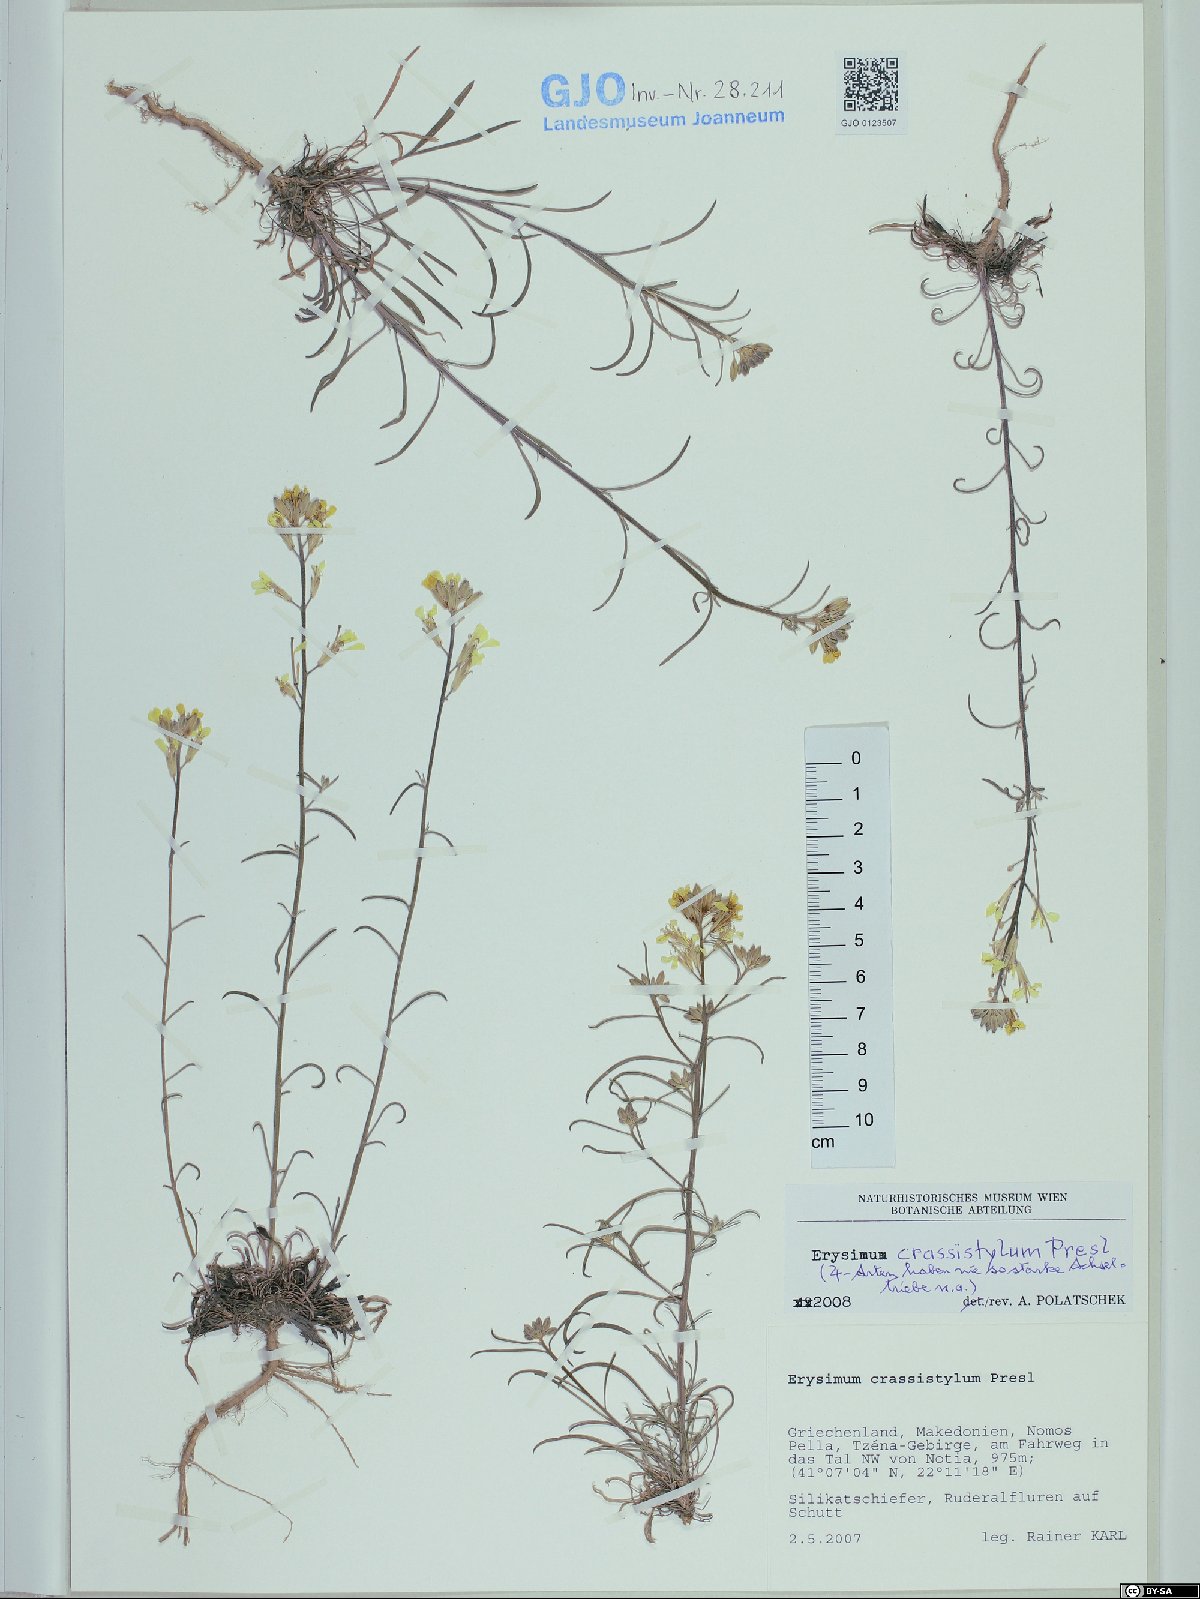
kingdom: Plantae
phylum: Tracheophyta
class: Magnoliopsida
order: Brassicales
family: Brassicaceae
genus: Erysimum
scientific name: Erysimum crassistylum
